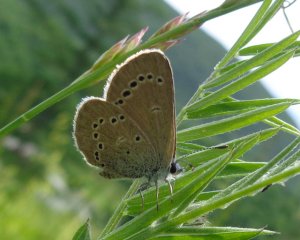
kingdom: Animalia
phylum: Arthropoda
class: Insecta
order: Lepidoptera
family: Lycaenidae
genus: Glaucopsyche
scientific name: Glaucopsyche lygdamus
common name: Silvery Blue
